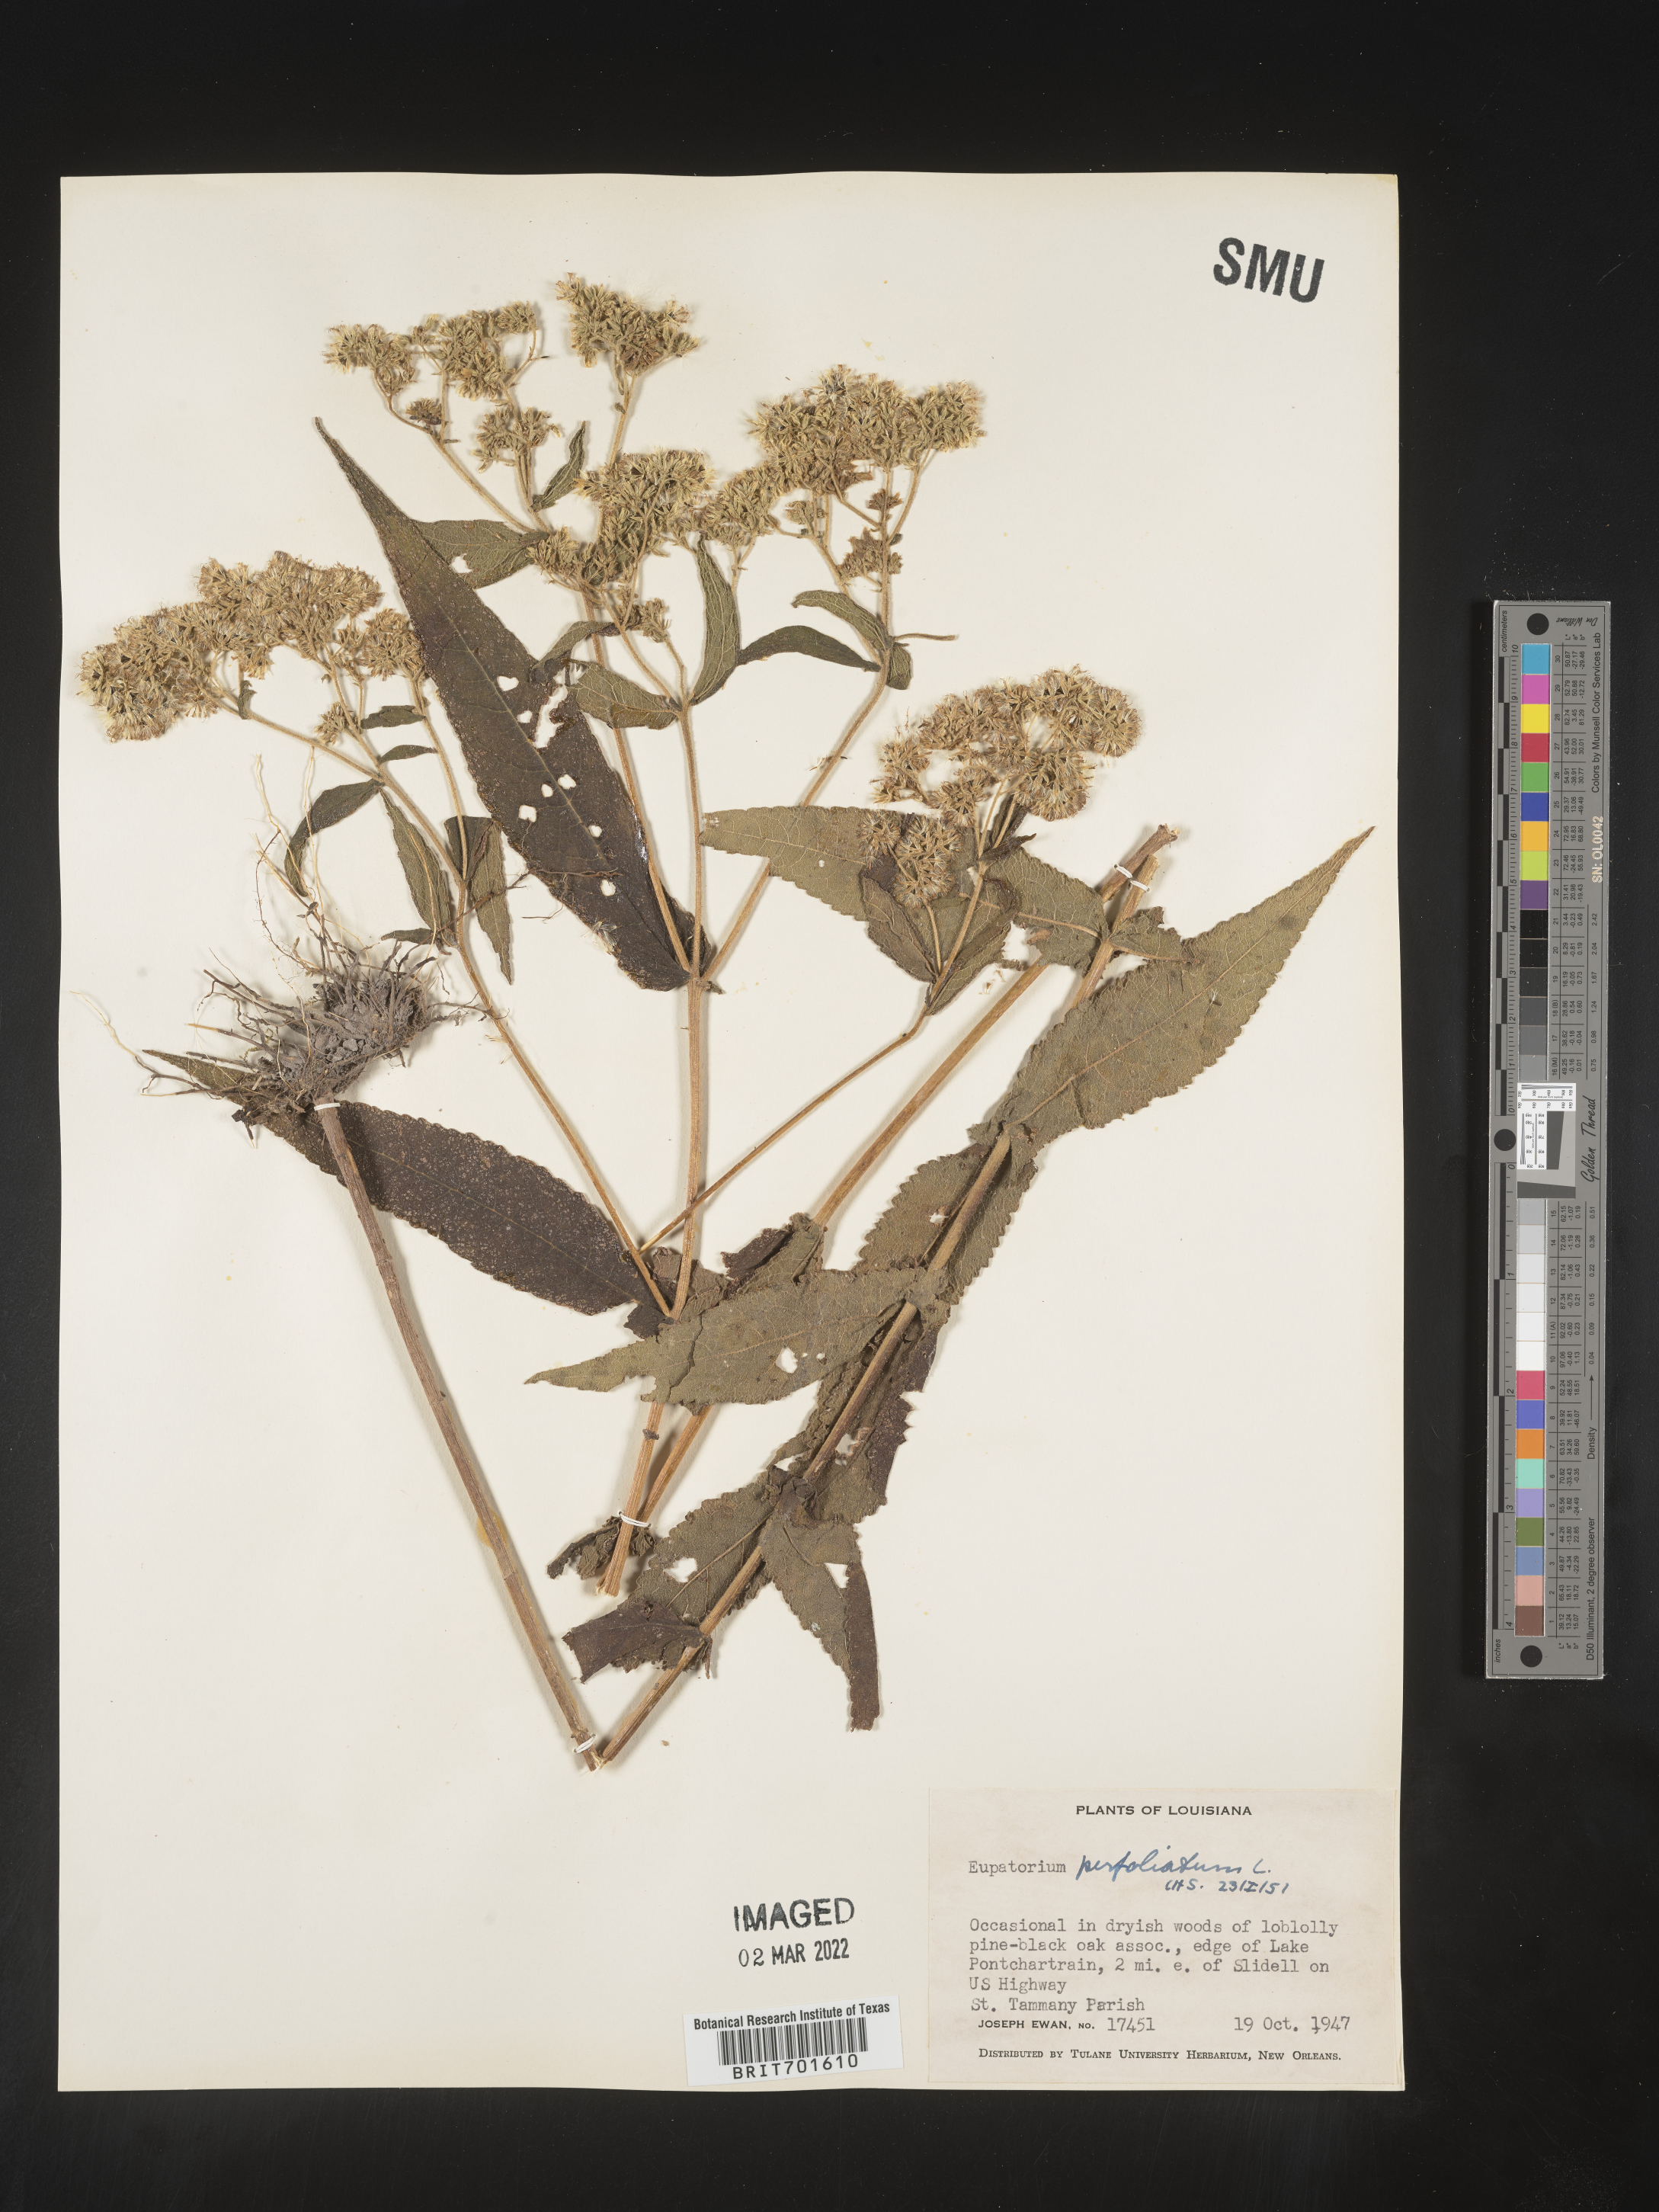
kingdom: Plantae
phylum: Tracheophyta
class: Magnoliopsida
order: Asterales
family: Asteraceae
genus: Eupatorium
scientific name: Eupatorium perfoliatum
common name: Boneset
